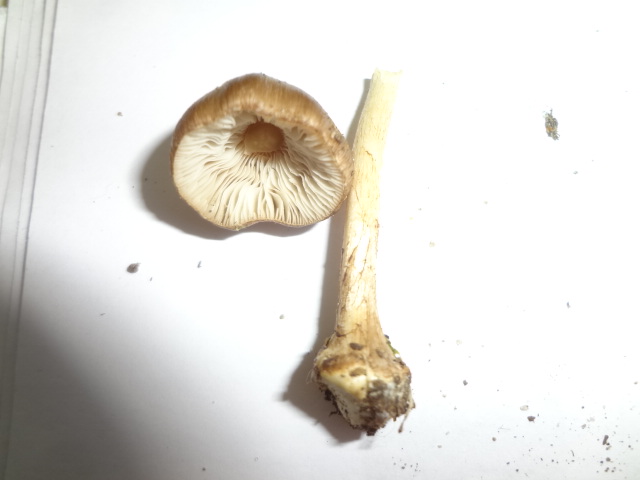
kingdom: Fungi
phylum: Basidiomycota
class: Agaricomycetes
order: Agaricales
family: Inocybaceae
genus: Inocybe
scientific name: Inocybe
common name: trævlhat
